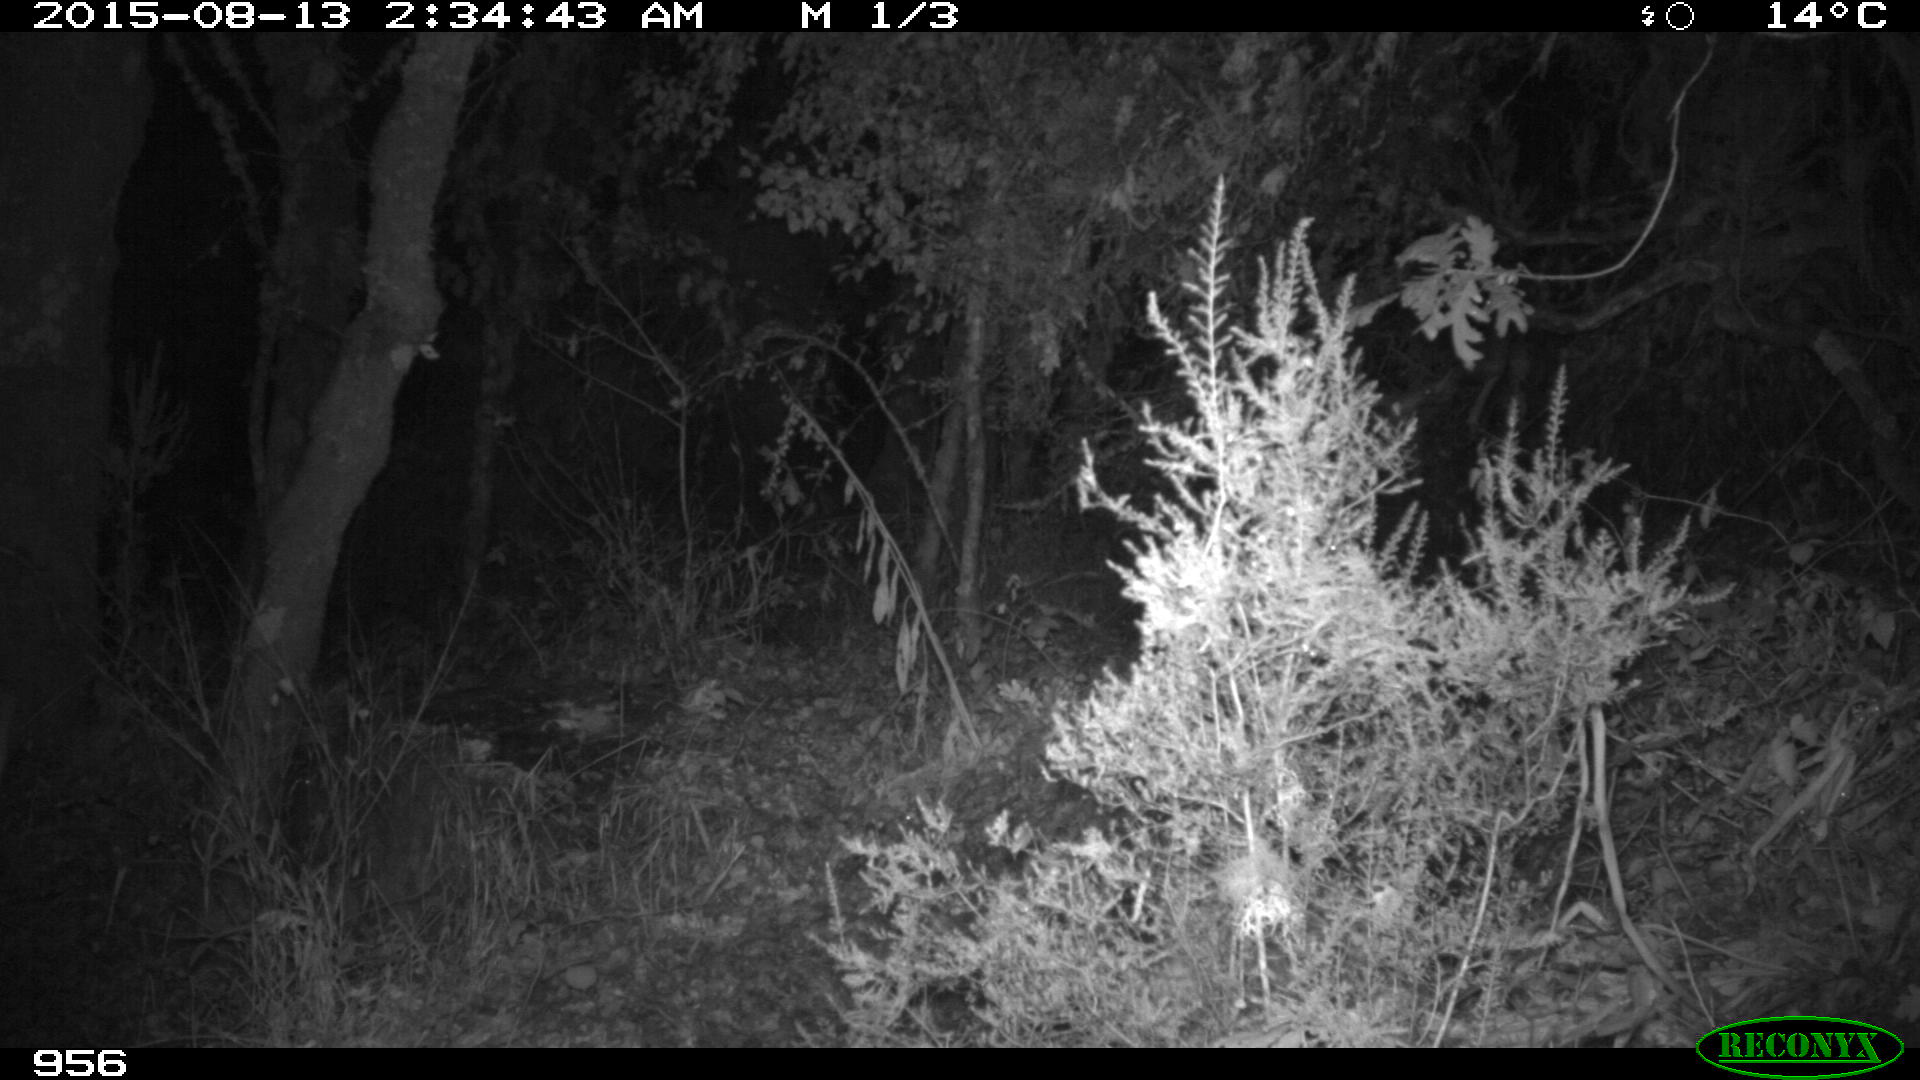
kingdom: Animalia
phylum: Chordata
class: Mammalia
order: Artiodactyla
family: Cervidae
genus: Capreolus
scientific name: Capreolus capreolus
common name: Western roe deer
